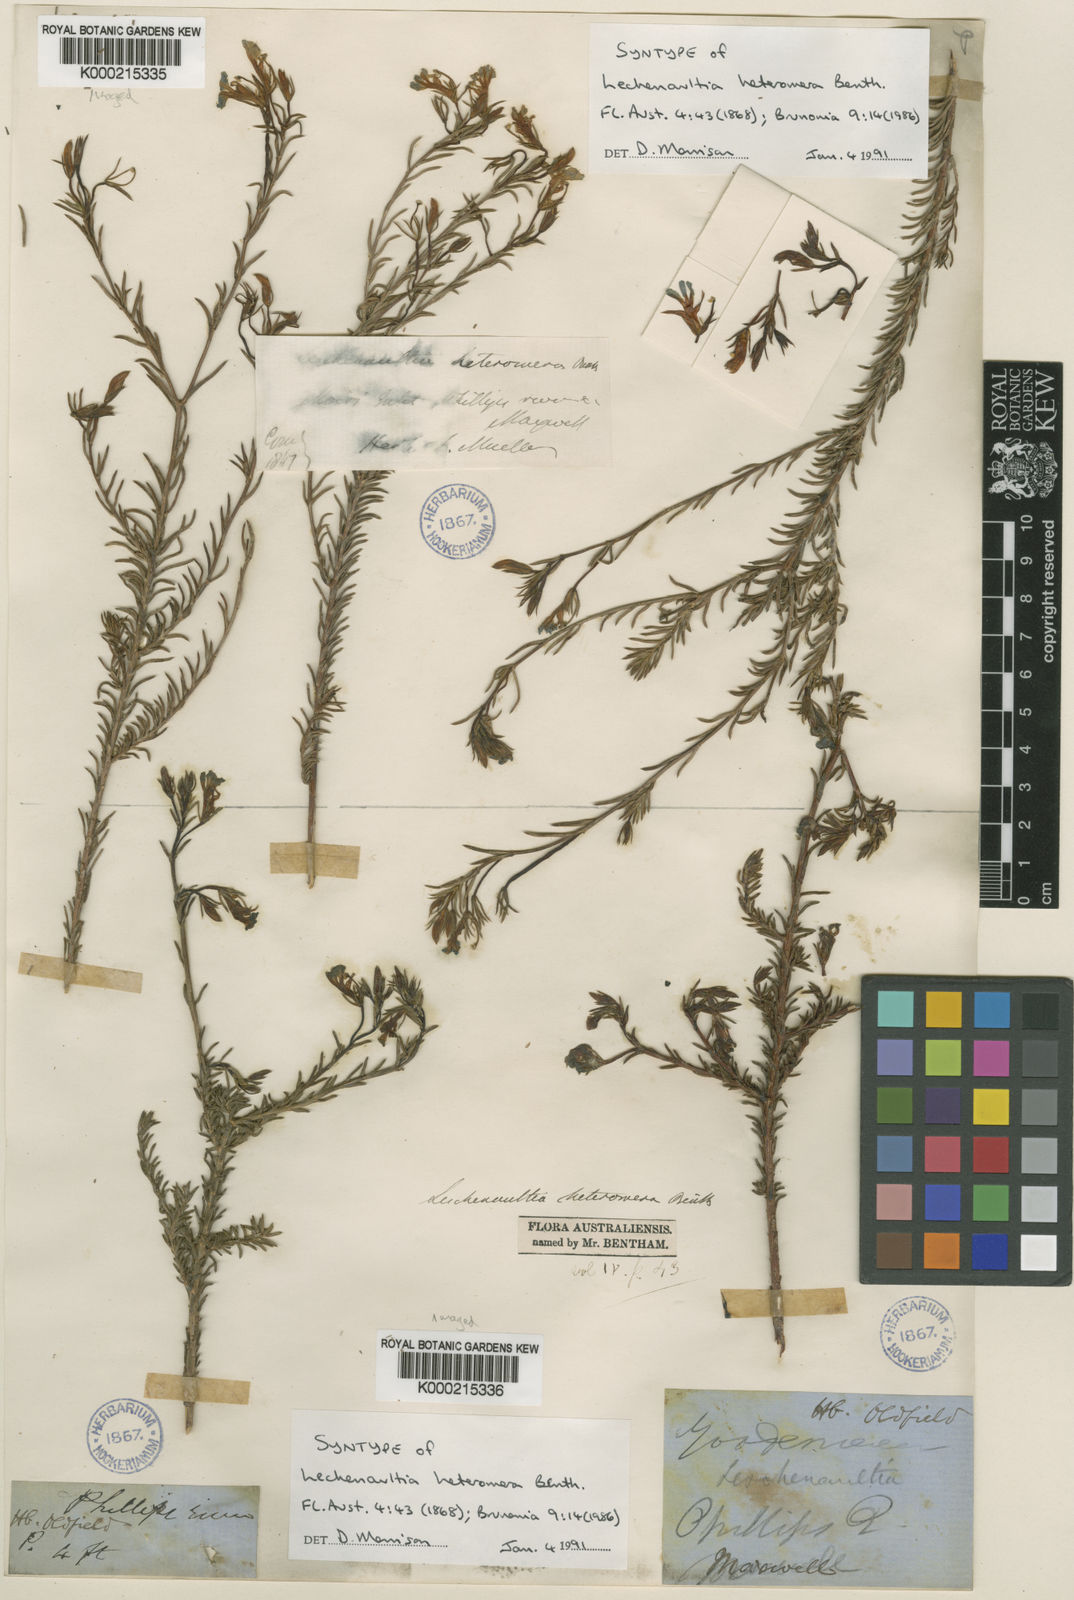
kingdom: Plantae
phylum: Tracheophyta
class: Magnoliopsida
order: Asterales
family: Goodeniaceae
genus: Leschenaultia
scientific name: Leschenaultia heteromera
